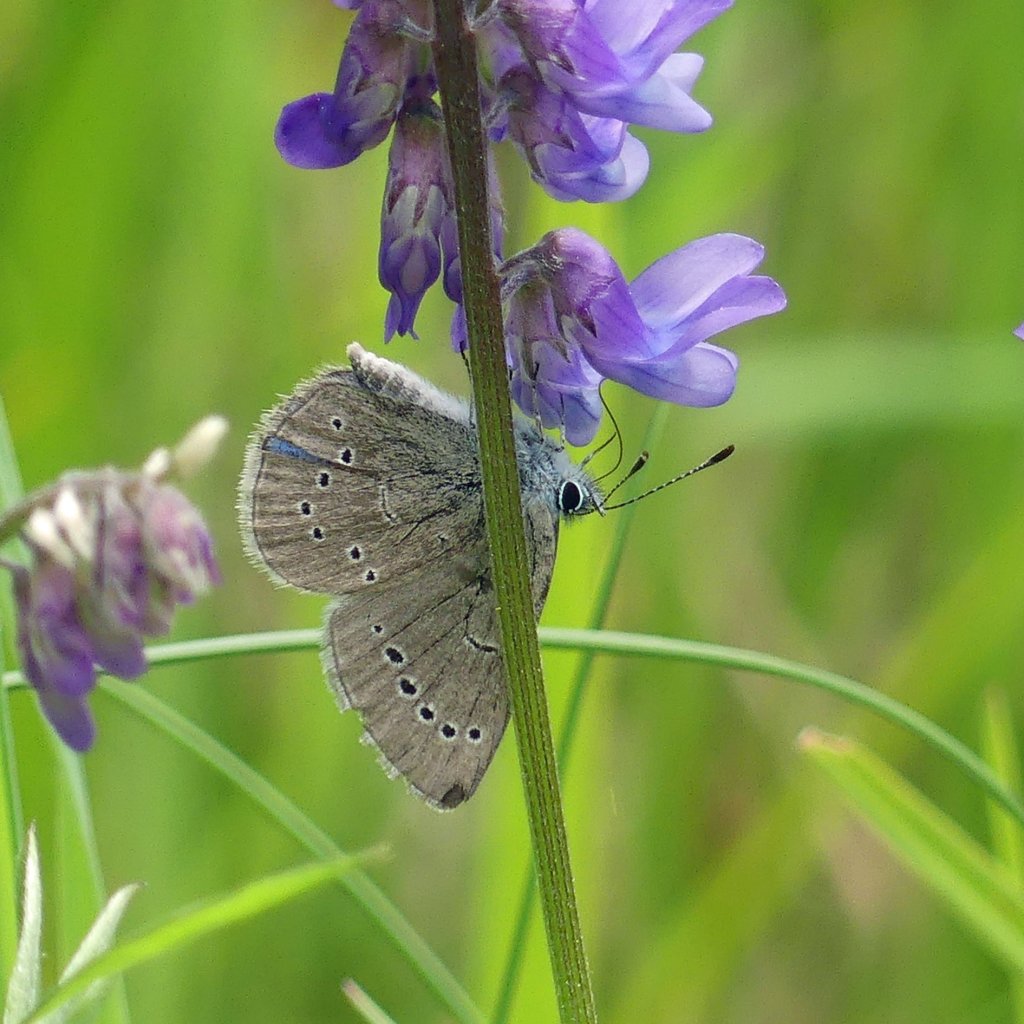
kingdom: Animalia
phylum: Arthropoda
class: Insecta
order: Lepidoptera
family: Lycaenidae
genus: Glaucopsyche
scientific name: Glaucopsyche lygdamus
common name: Silvery Blue
